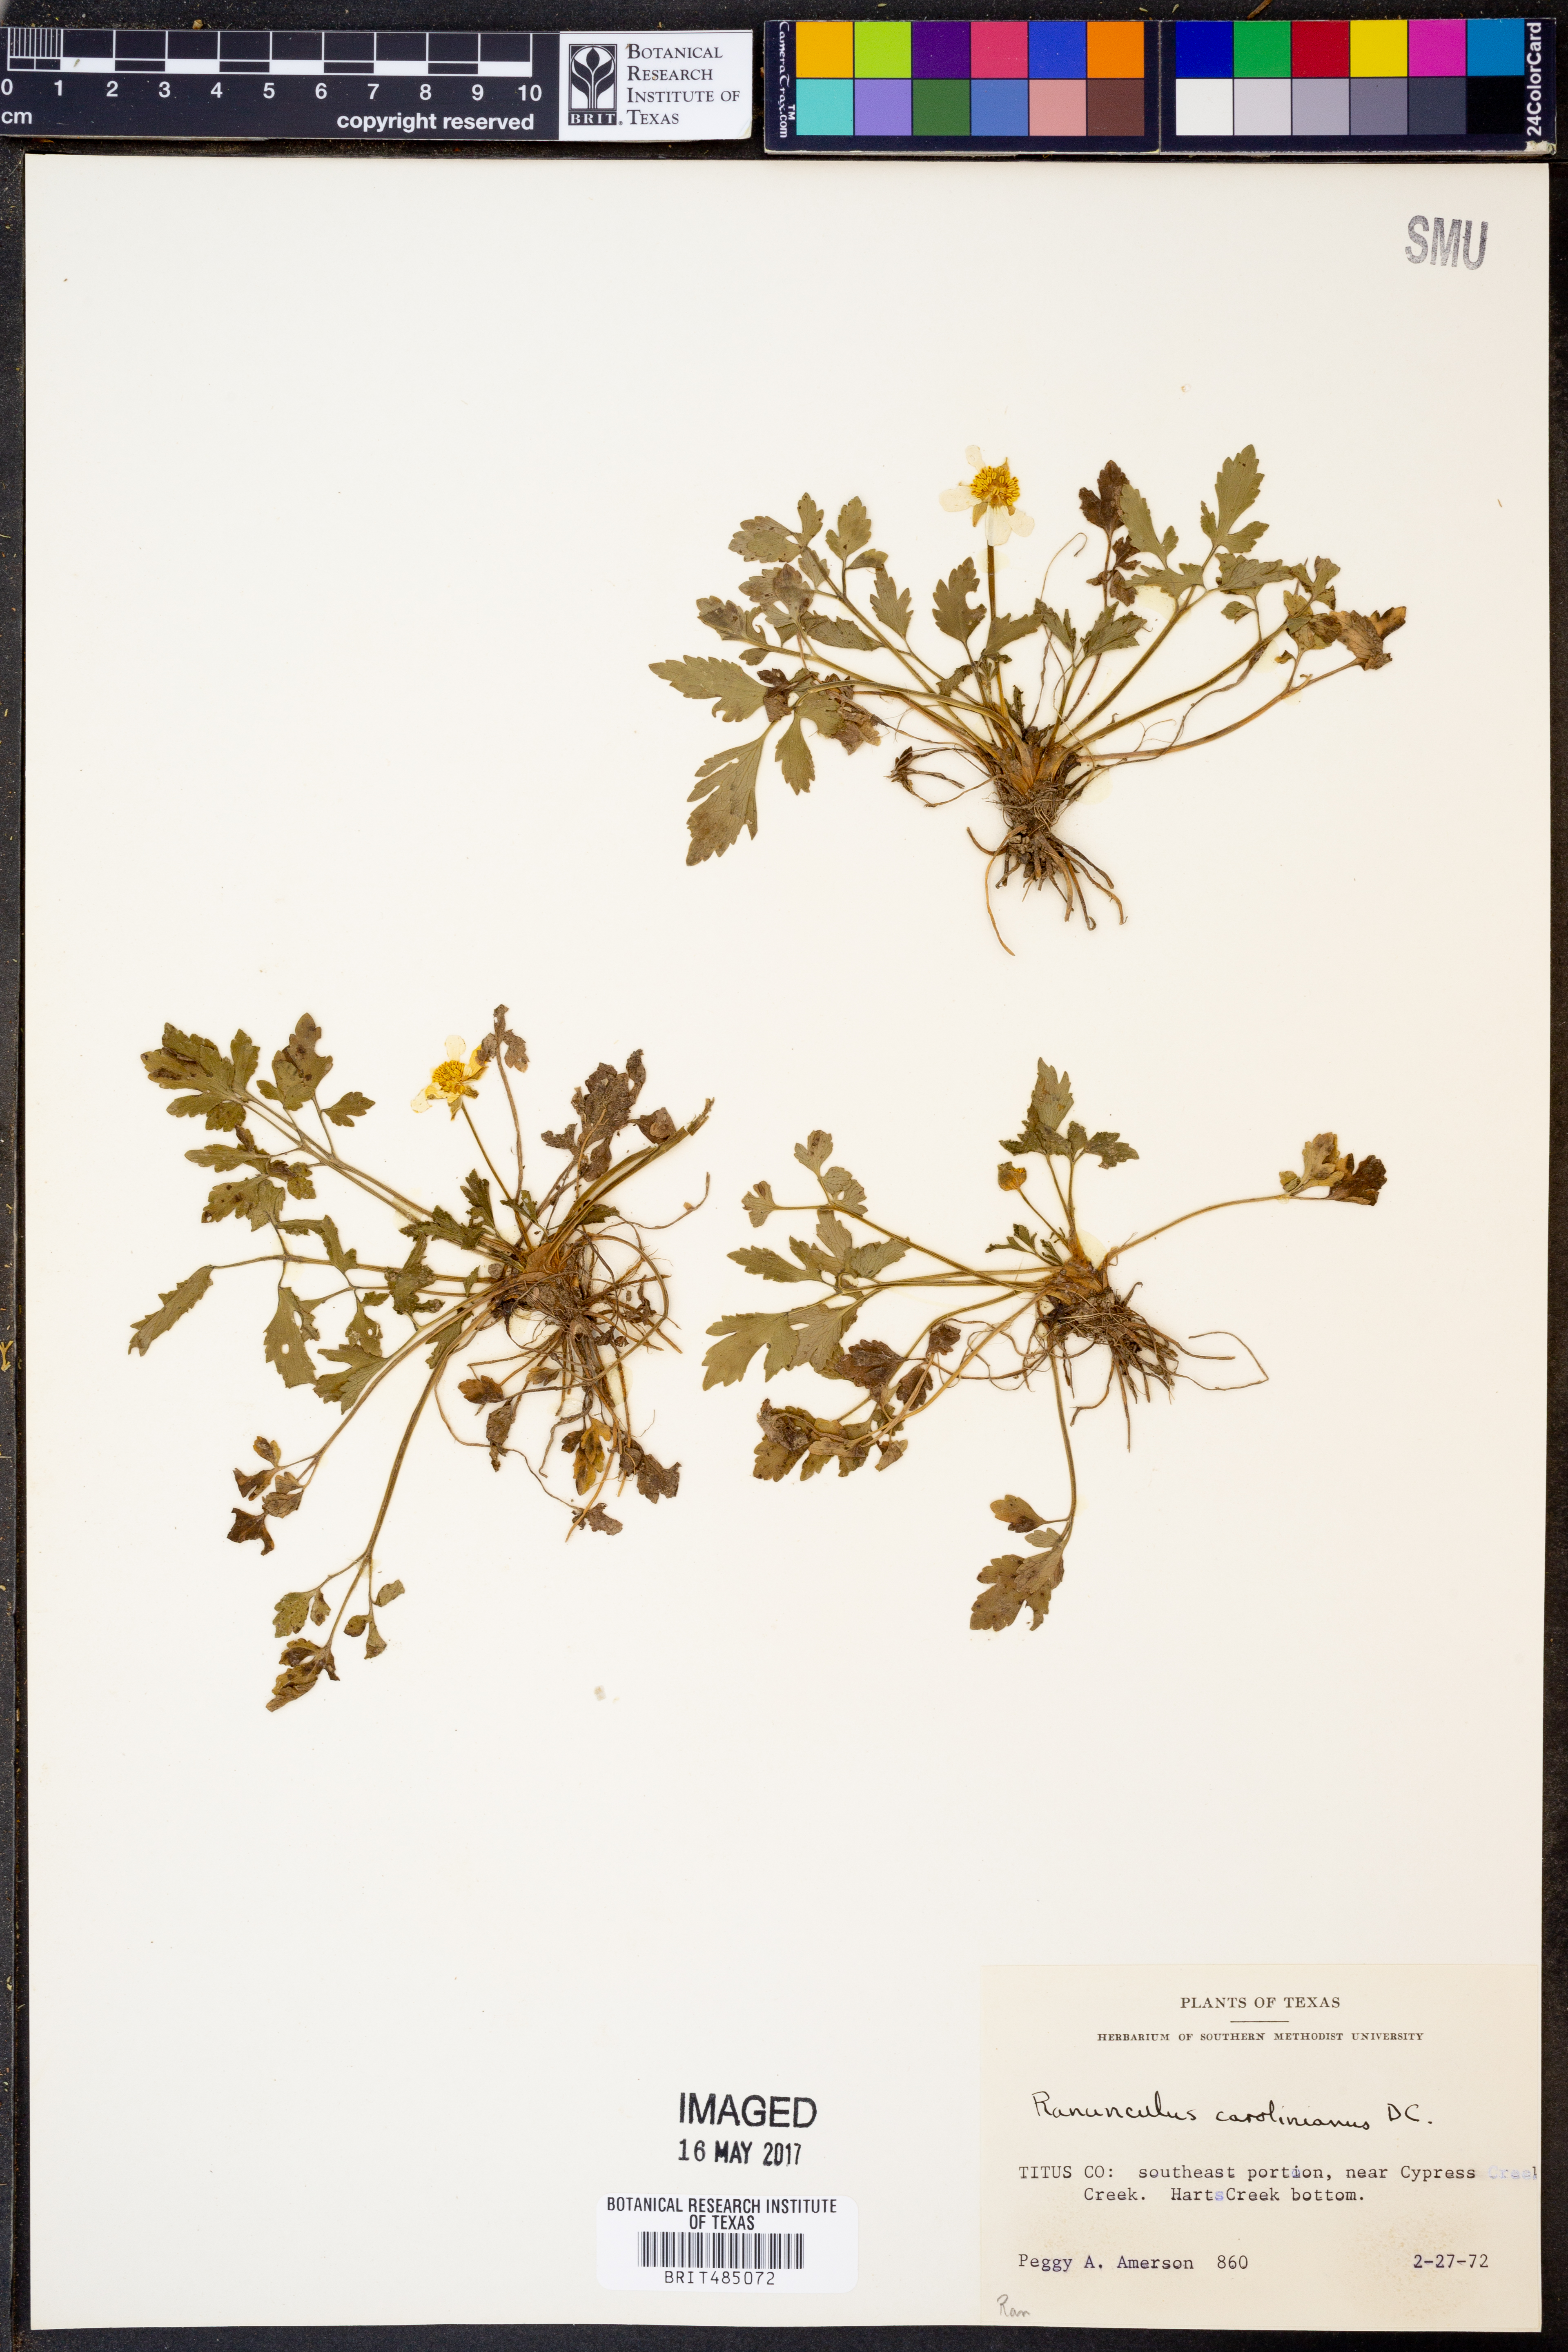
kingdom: Plantae
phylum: Tracheophyta
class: Magnoliopsida
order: Ranunculales
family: Ranunculaceae
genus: Ranunculus
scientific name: Ranunculus hispidus
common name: Bristly buttercup
